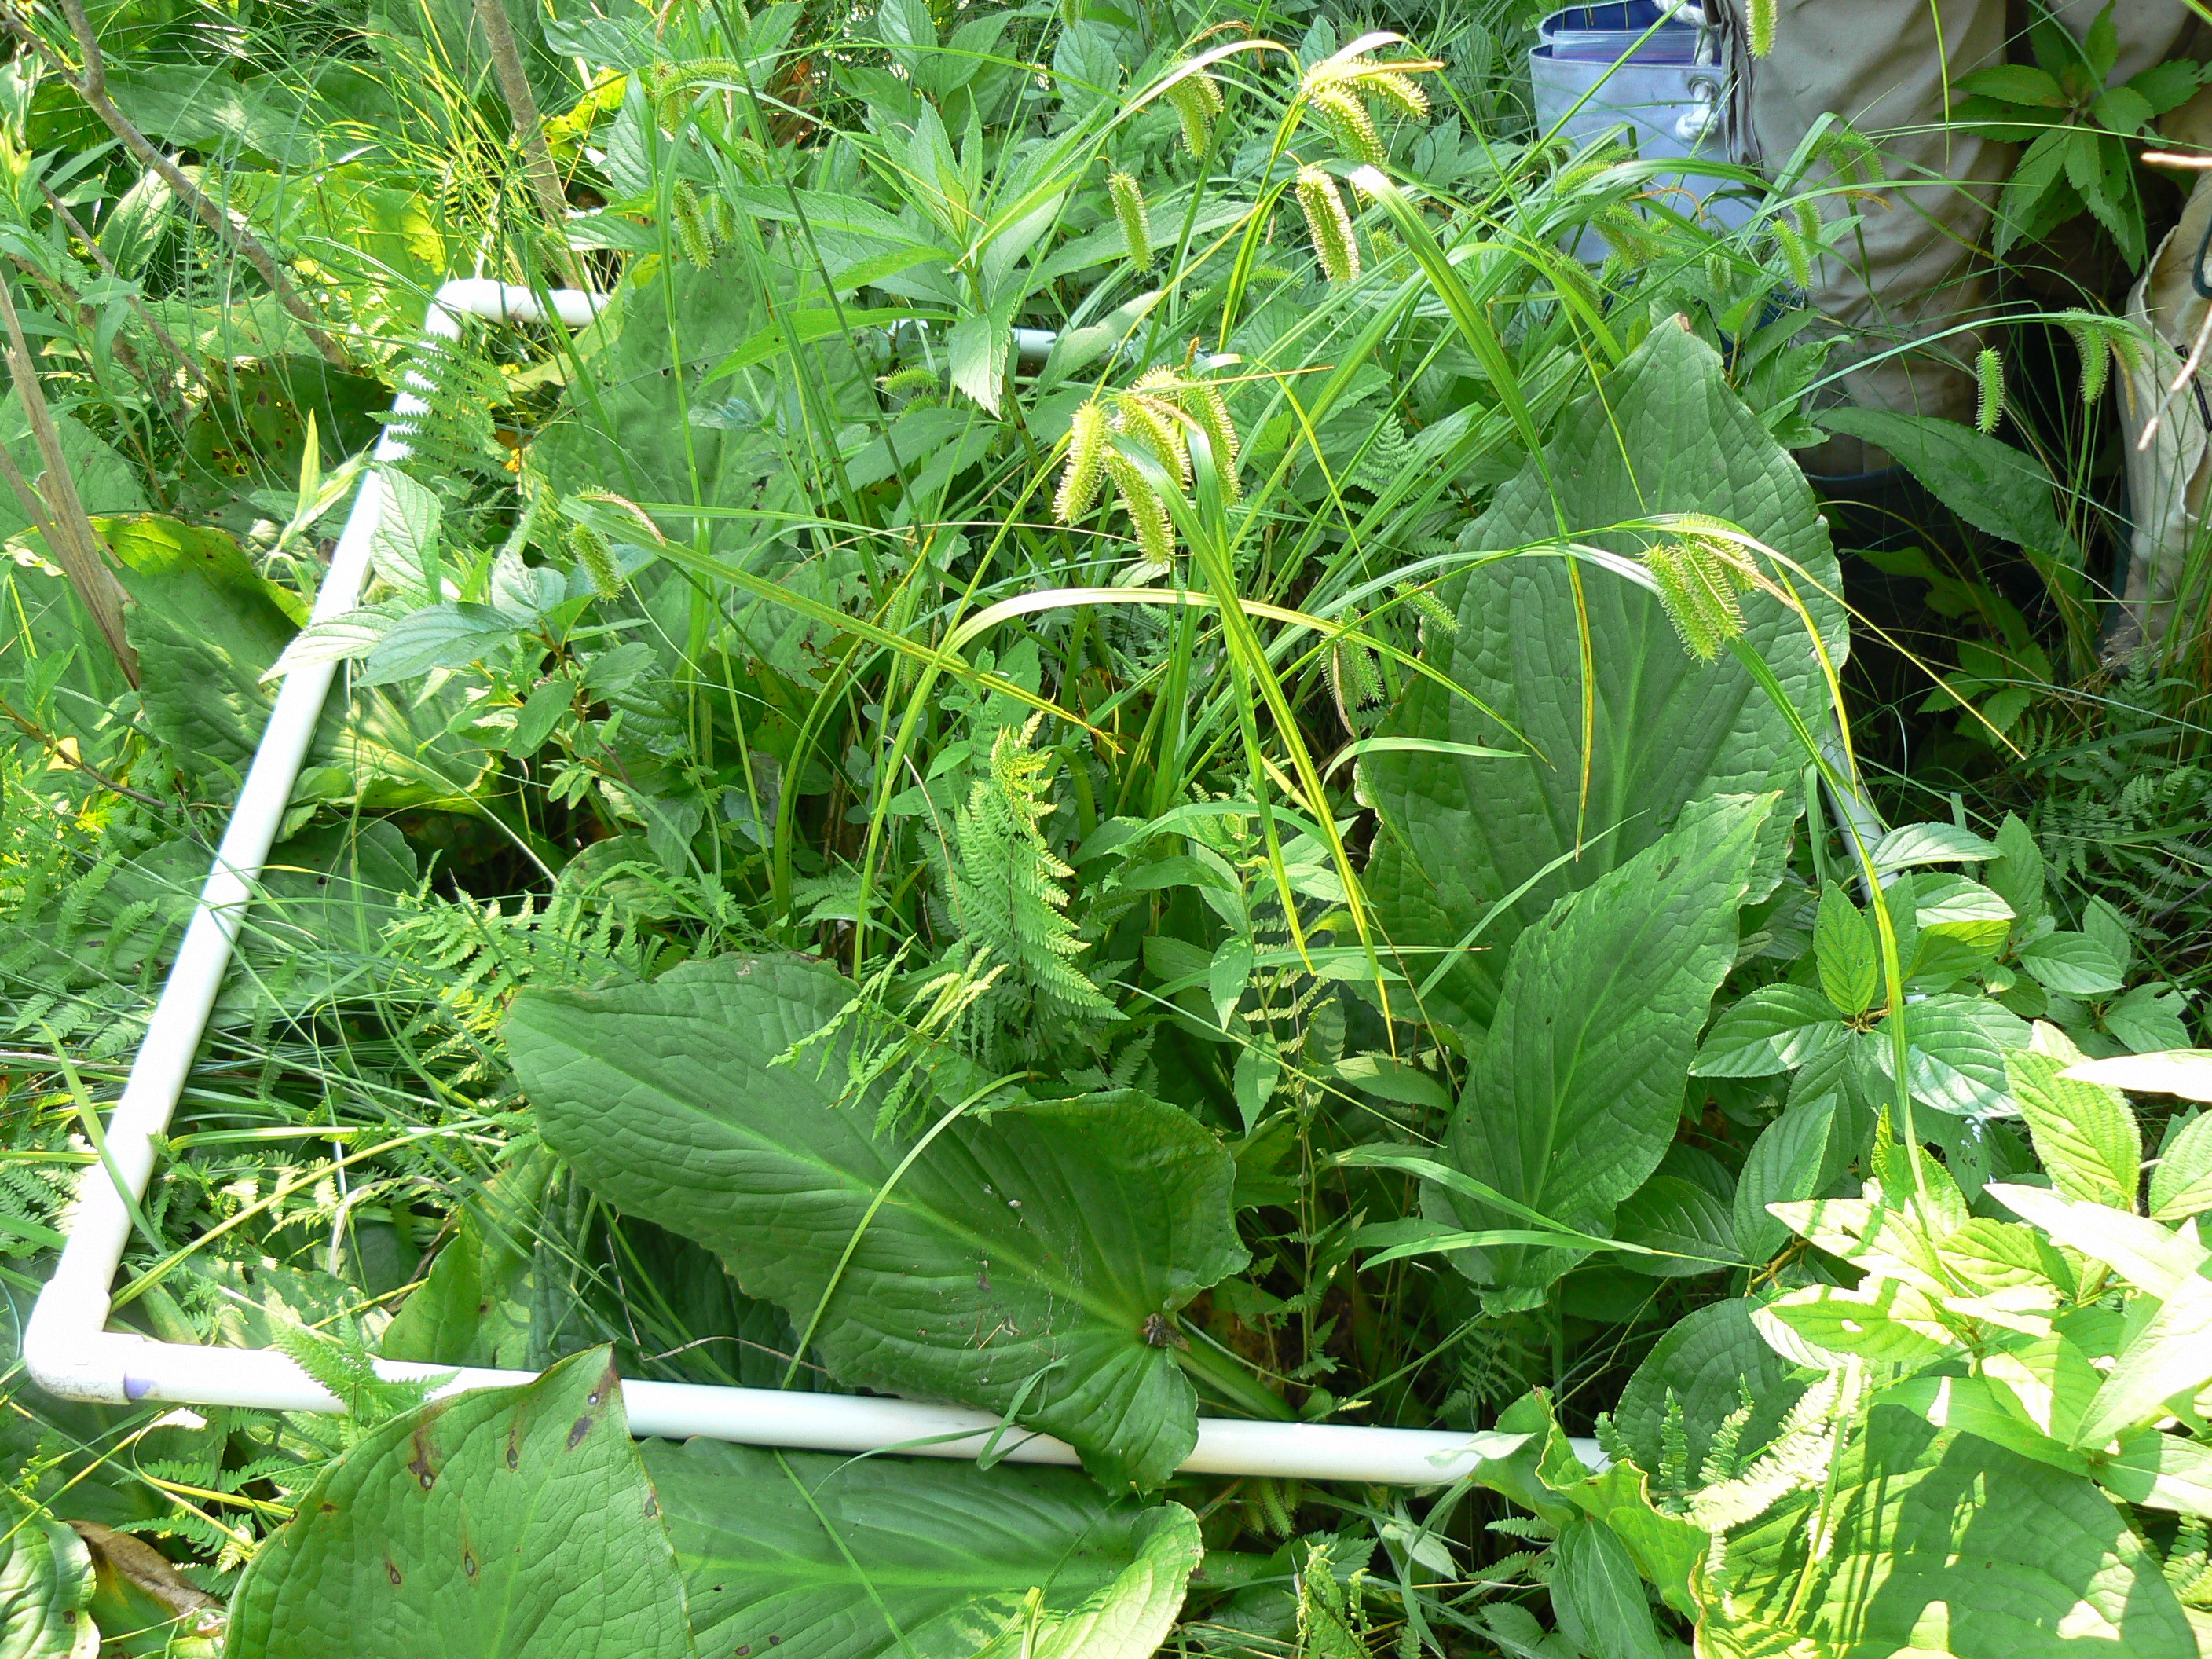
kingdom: Plantae
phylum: Tracheophyta
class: Magnoliopsida
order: Gentianales
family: Rubiaceae
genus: Galium
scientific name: Galium asprellum
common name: Rough bedstraw
